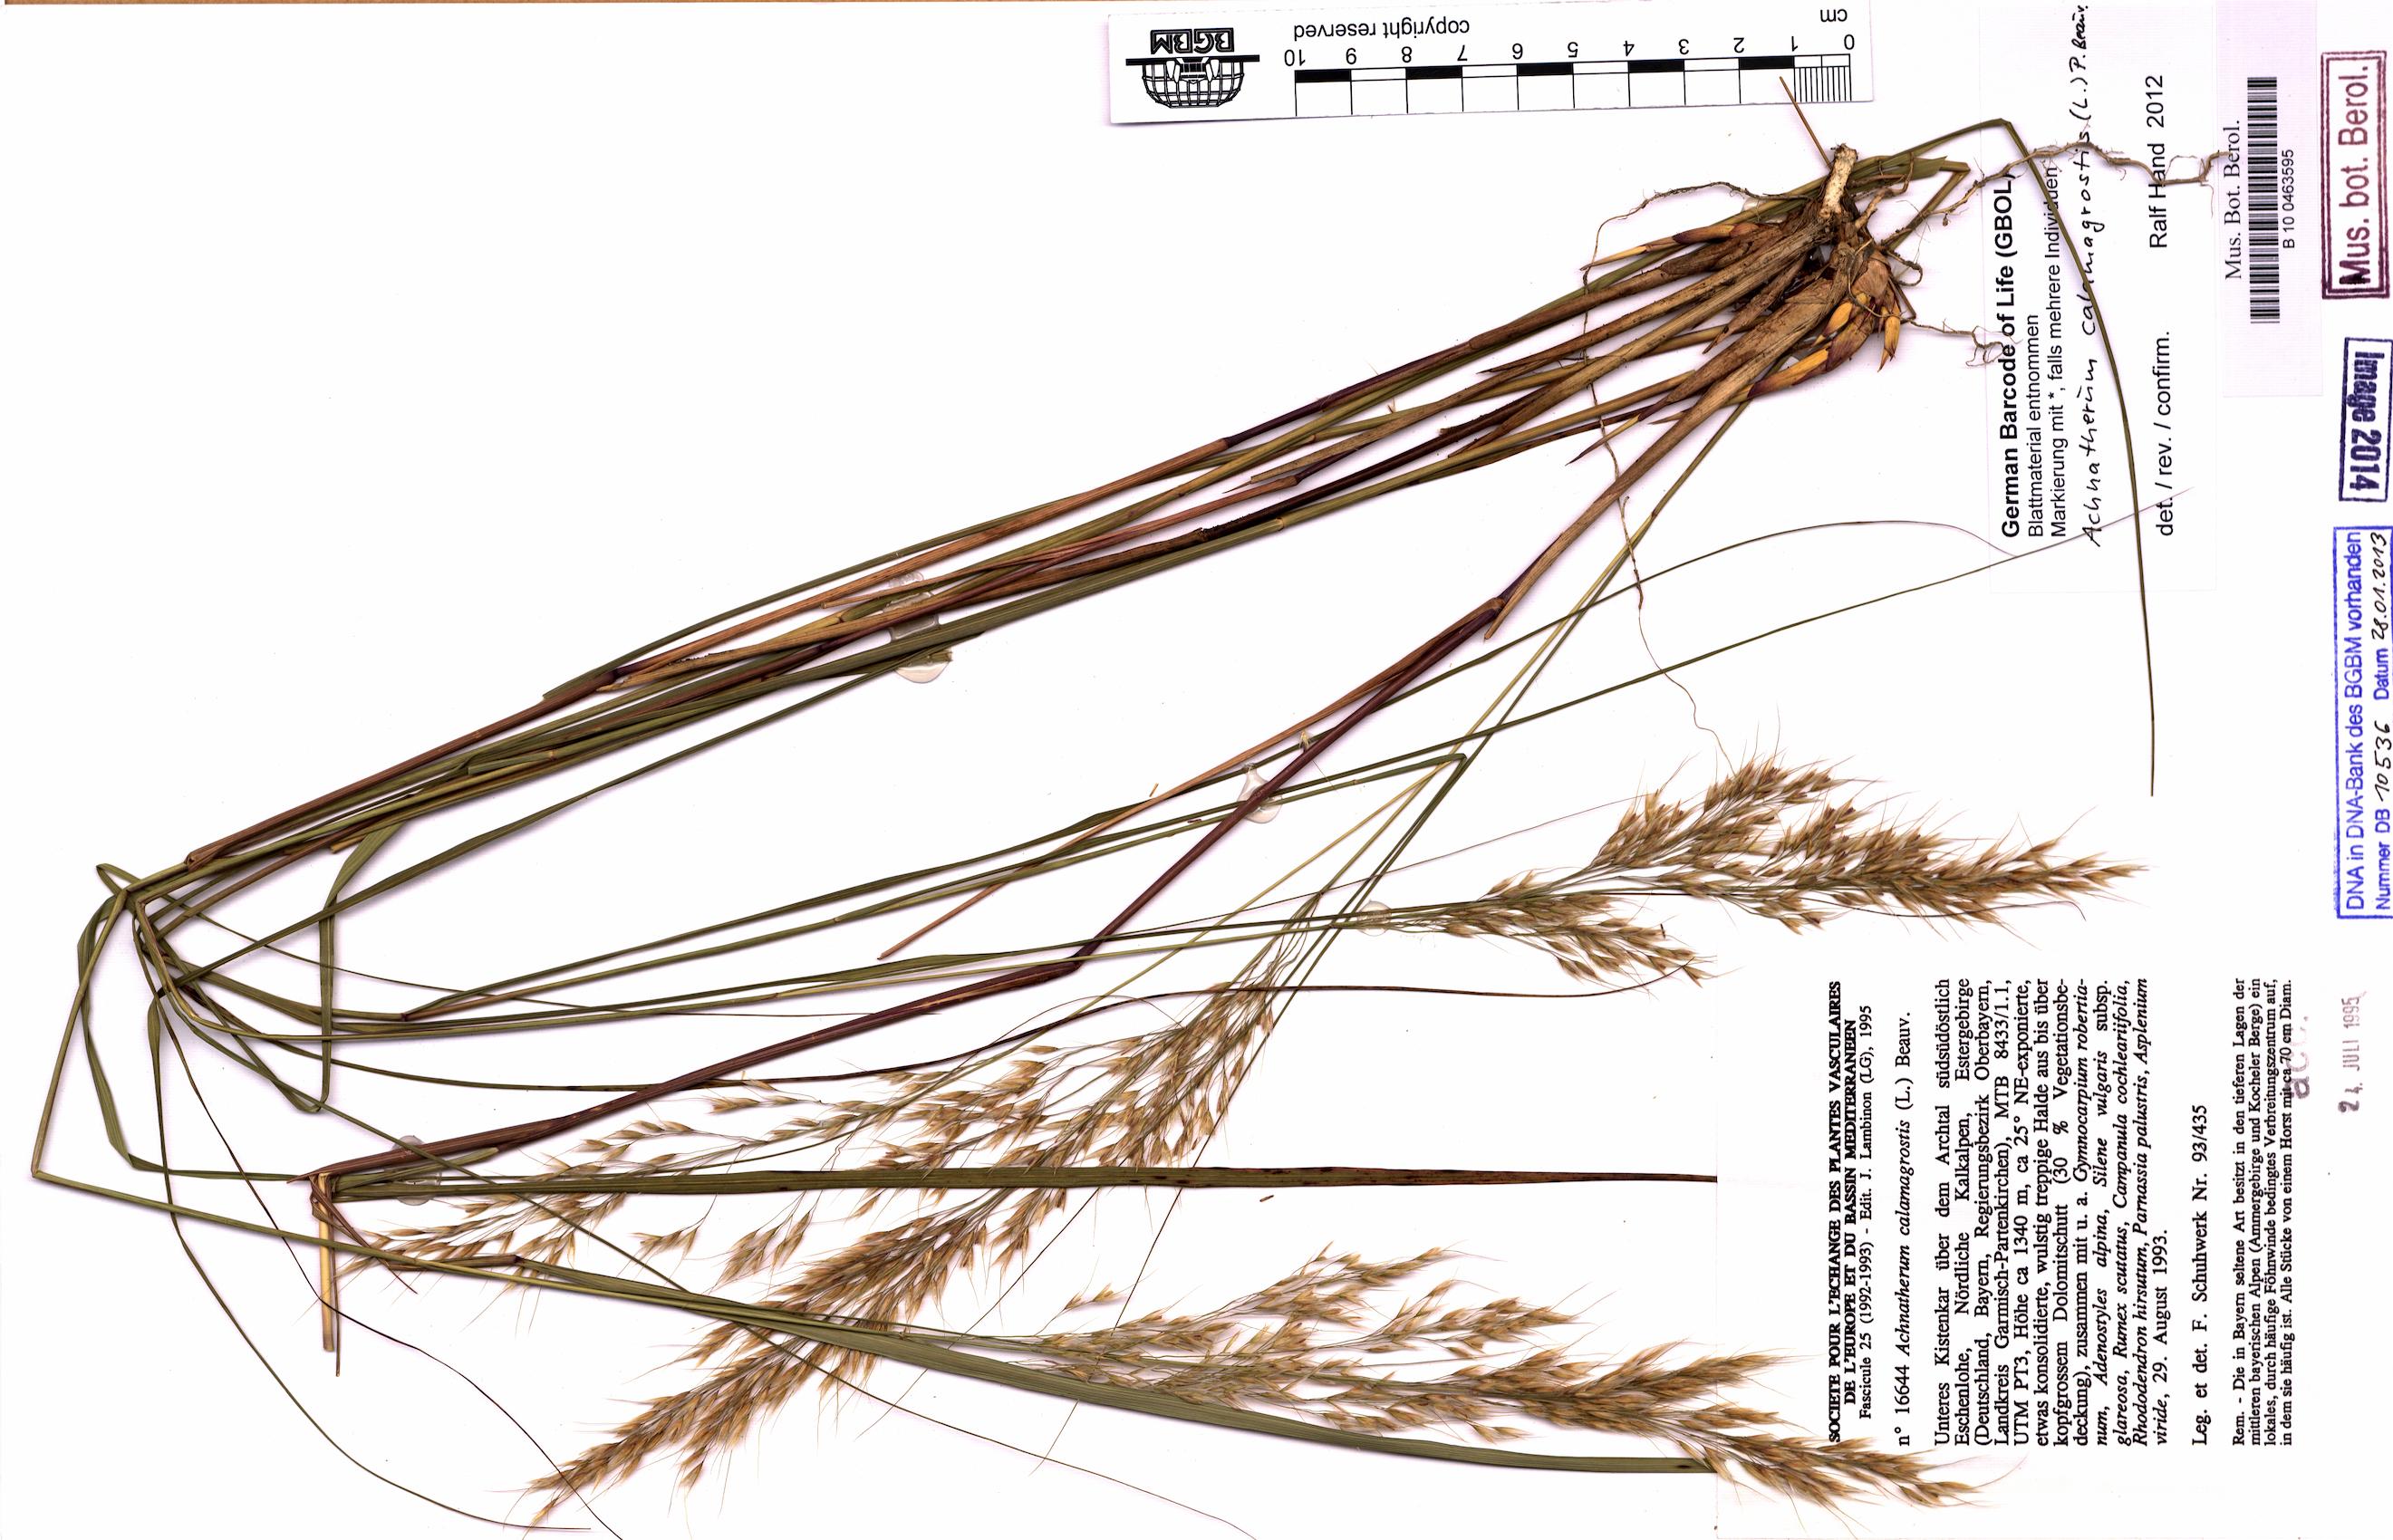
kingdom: Plantae
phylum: Tracheophyta
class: Liliopsida
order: Poales
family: Poaceae
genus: Achnatherum
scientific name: Achnatherum calamagrostis
